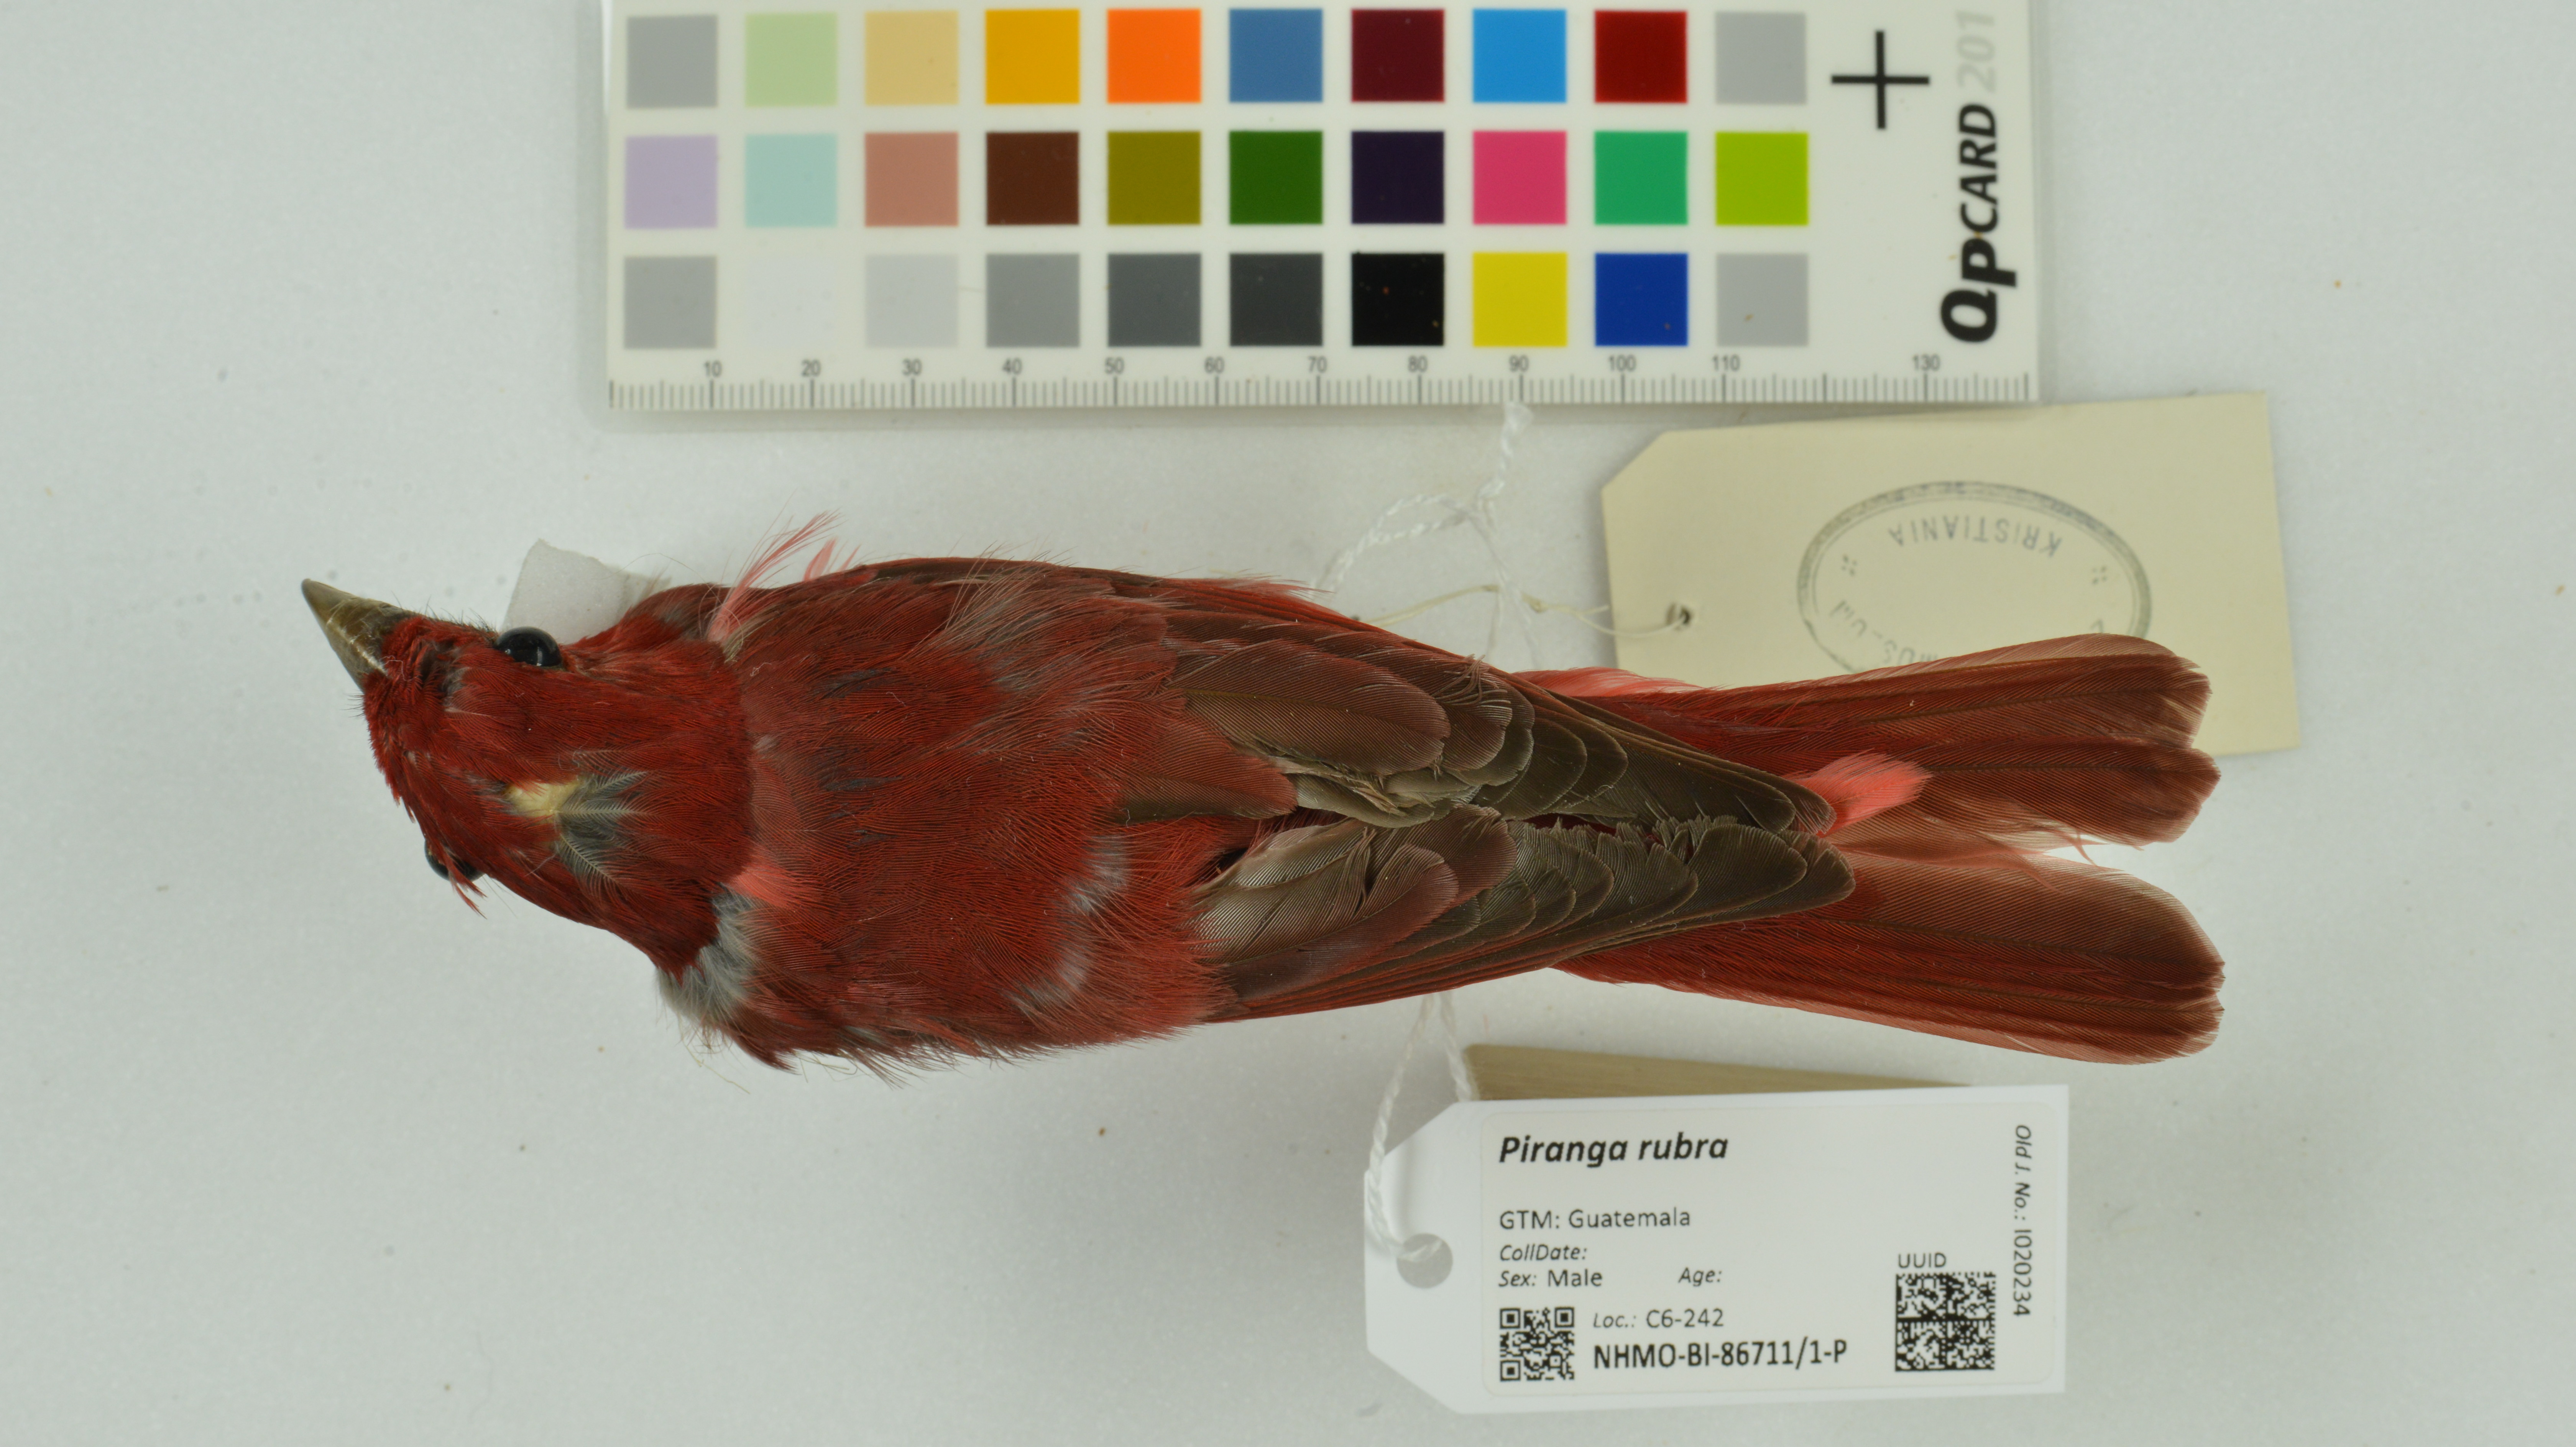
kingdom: Animalia
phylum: Chordata
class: Aves
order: Passeriformes
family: Cardinalidae
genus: Piranga
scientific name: Piranga rubra
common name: Summer tanager
